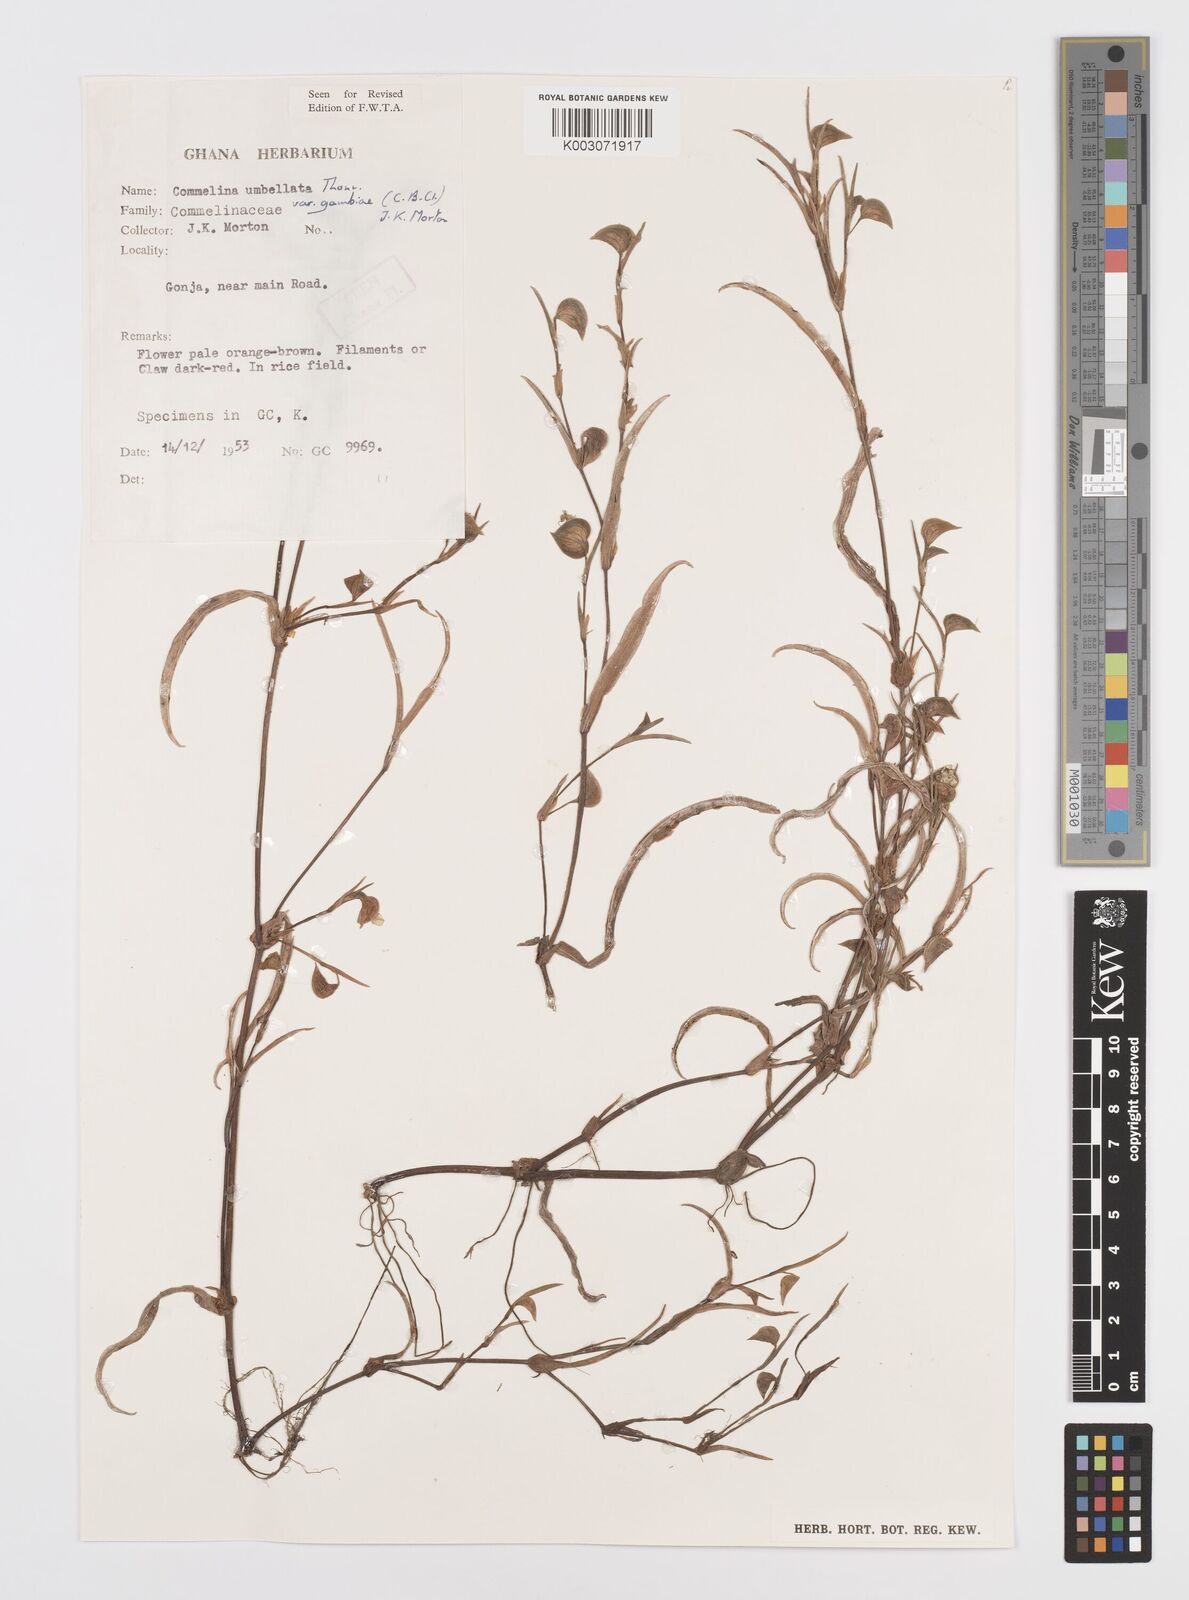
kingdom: Plantae
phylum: Tracheophyta
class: Liliopsida
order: Commelinales
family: Commelinaceae
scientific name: Commelinaceae
